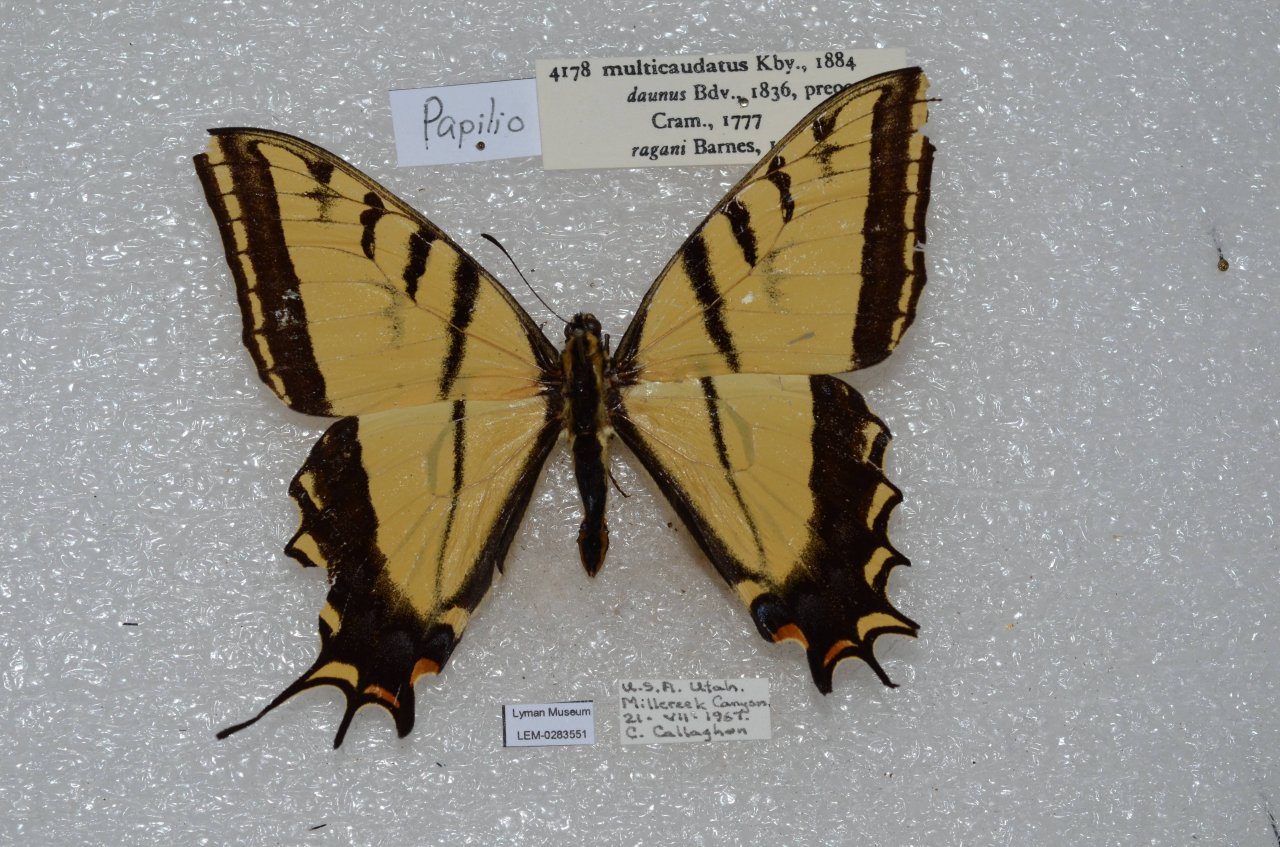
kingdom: Animalia
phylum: Arthropoda
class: Insecta
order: Lepidoptera
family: Papilionidae
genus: Papilio
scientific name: Papilio multicaudata
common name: Two-tailed Swallowtail
